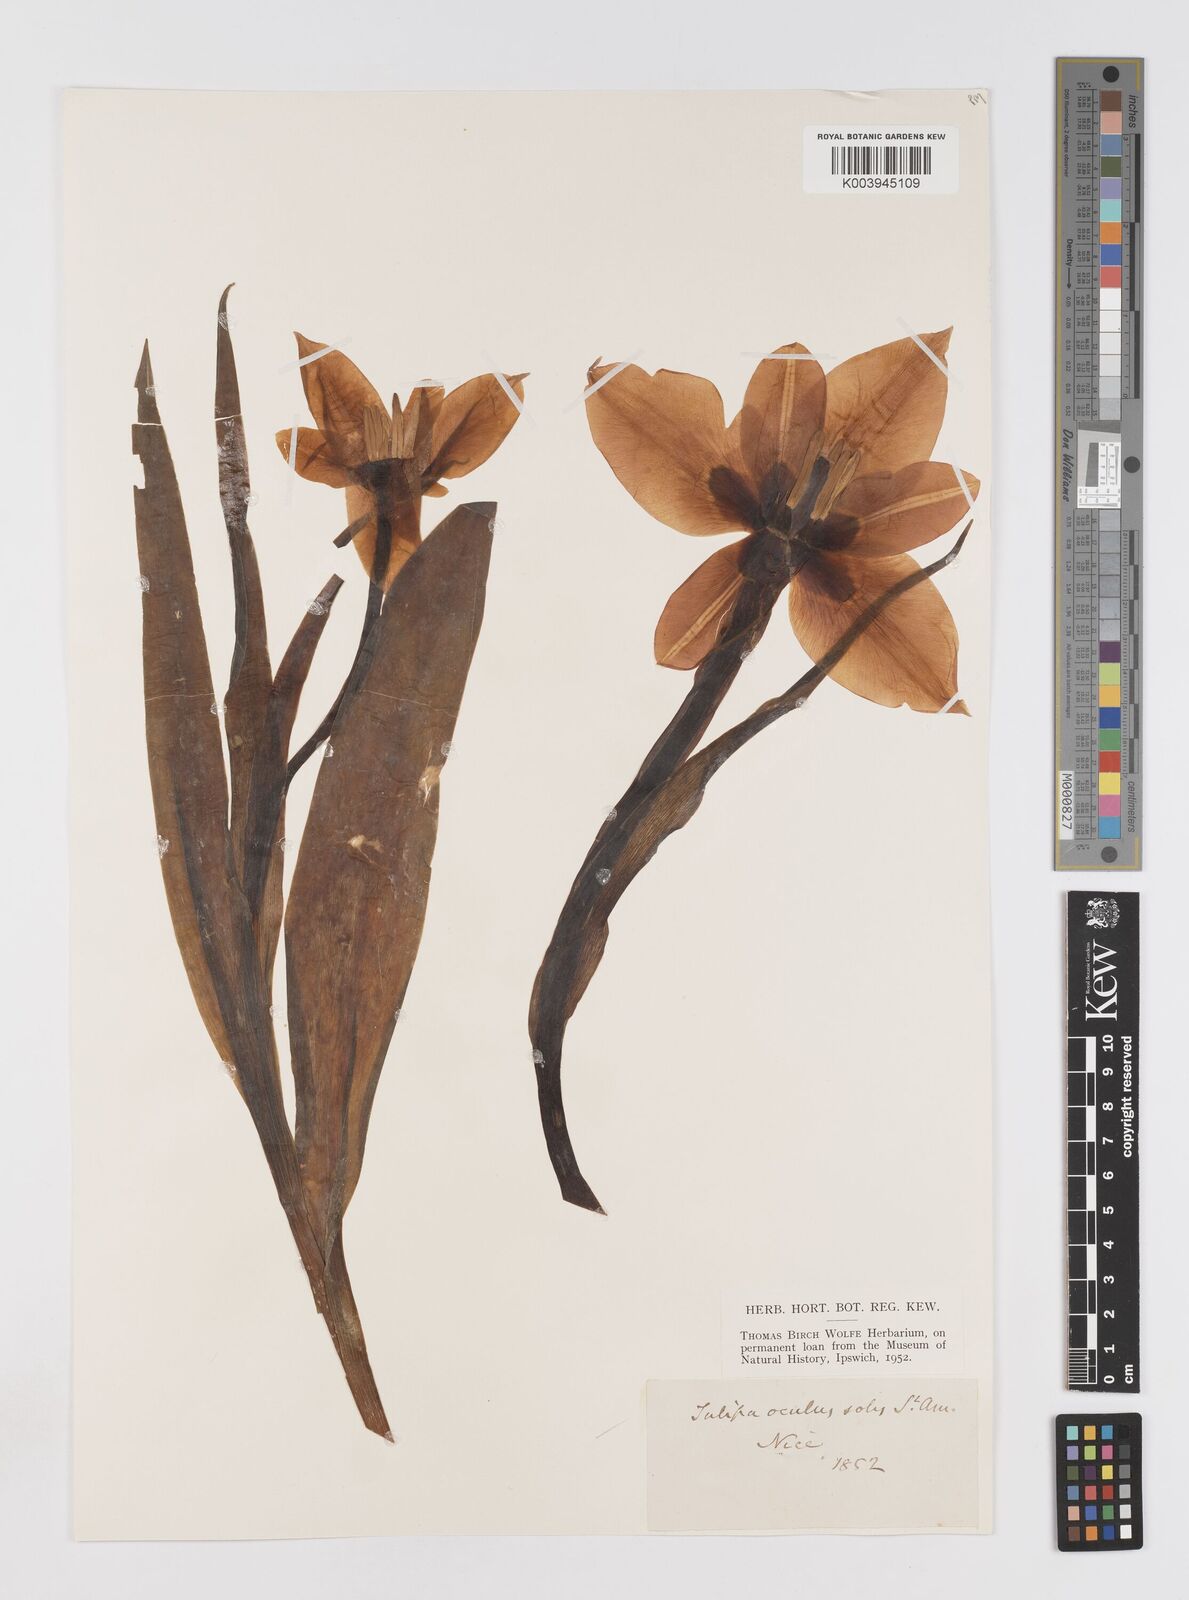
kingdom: Plantae
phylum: Tracheophyta
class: Liliopsida
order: Liliales
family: Liliaceae
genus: Tulipa
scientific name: Tulipa
